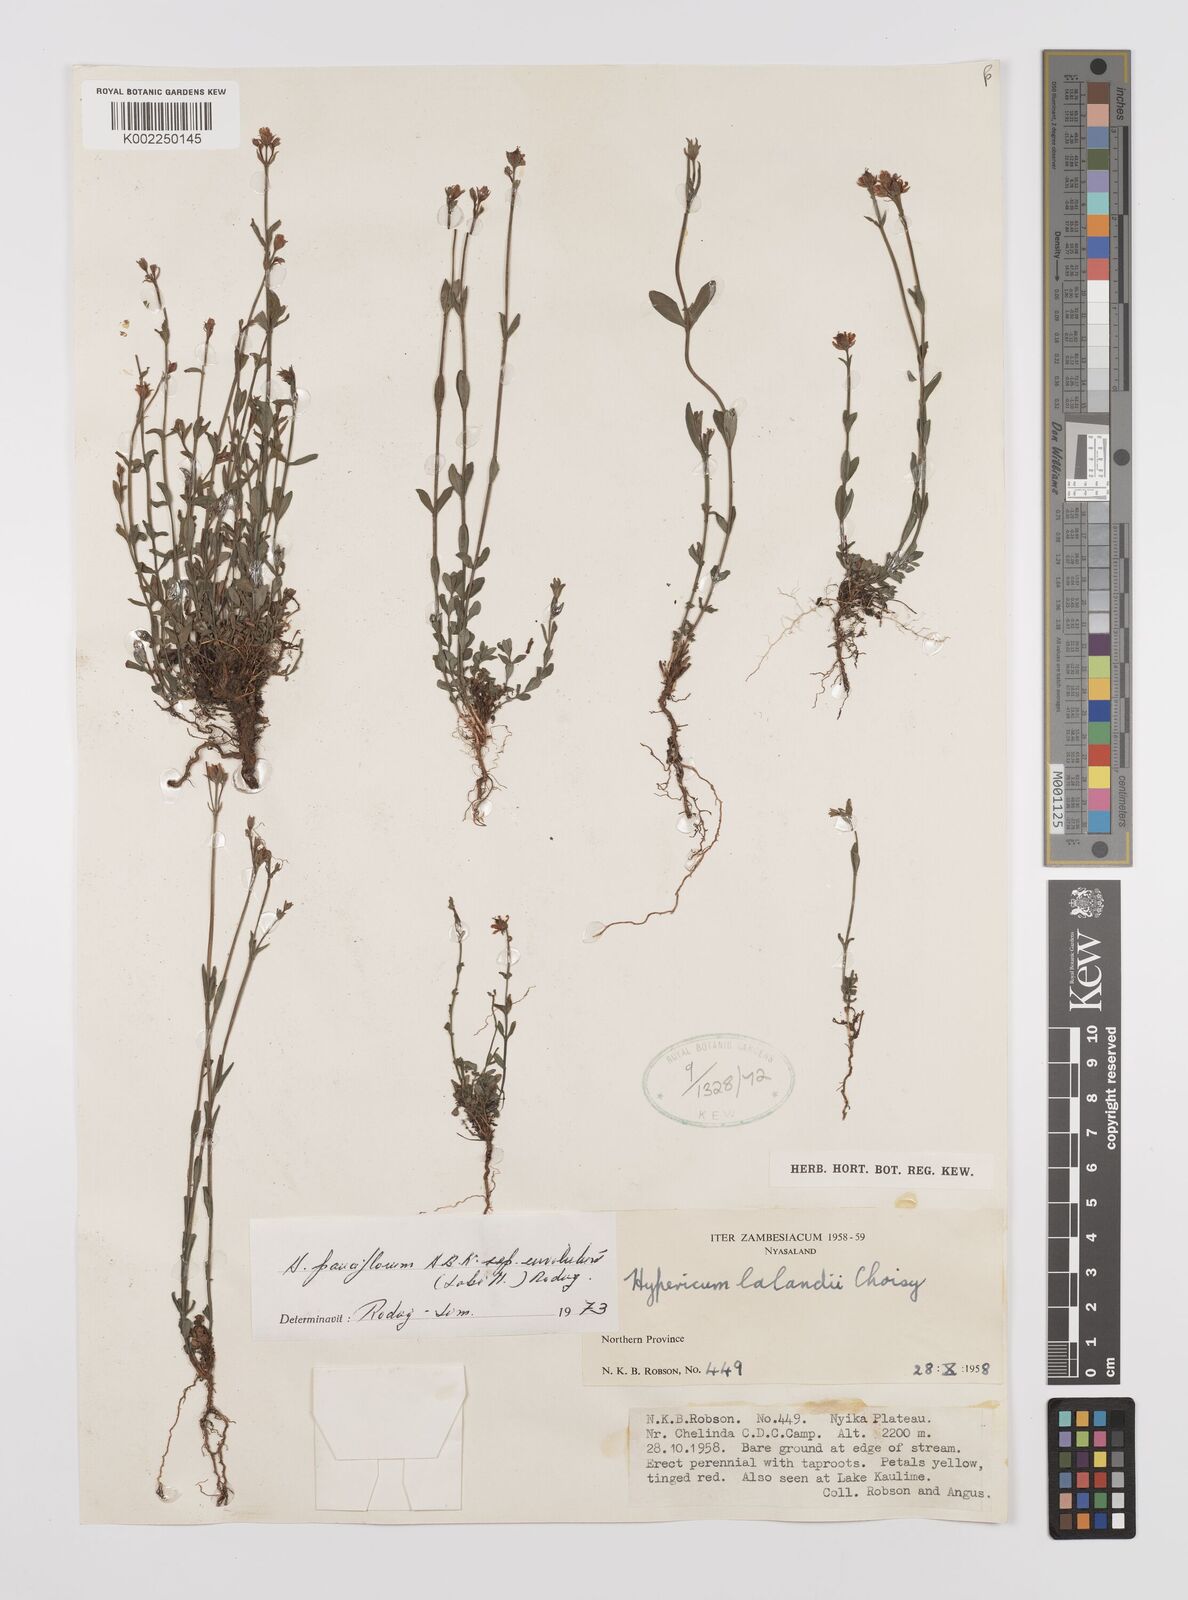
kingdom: Plantae
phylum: Tracheophyta
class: Magnoliopsida
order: Malpighiales
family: Hypericaceae
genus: Hypericum
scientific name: Hypericum lalandii
